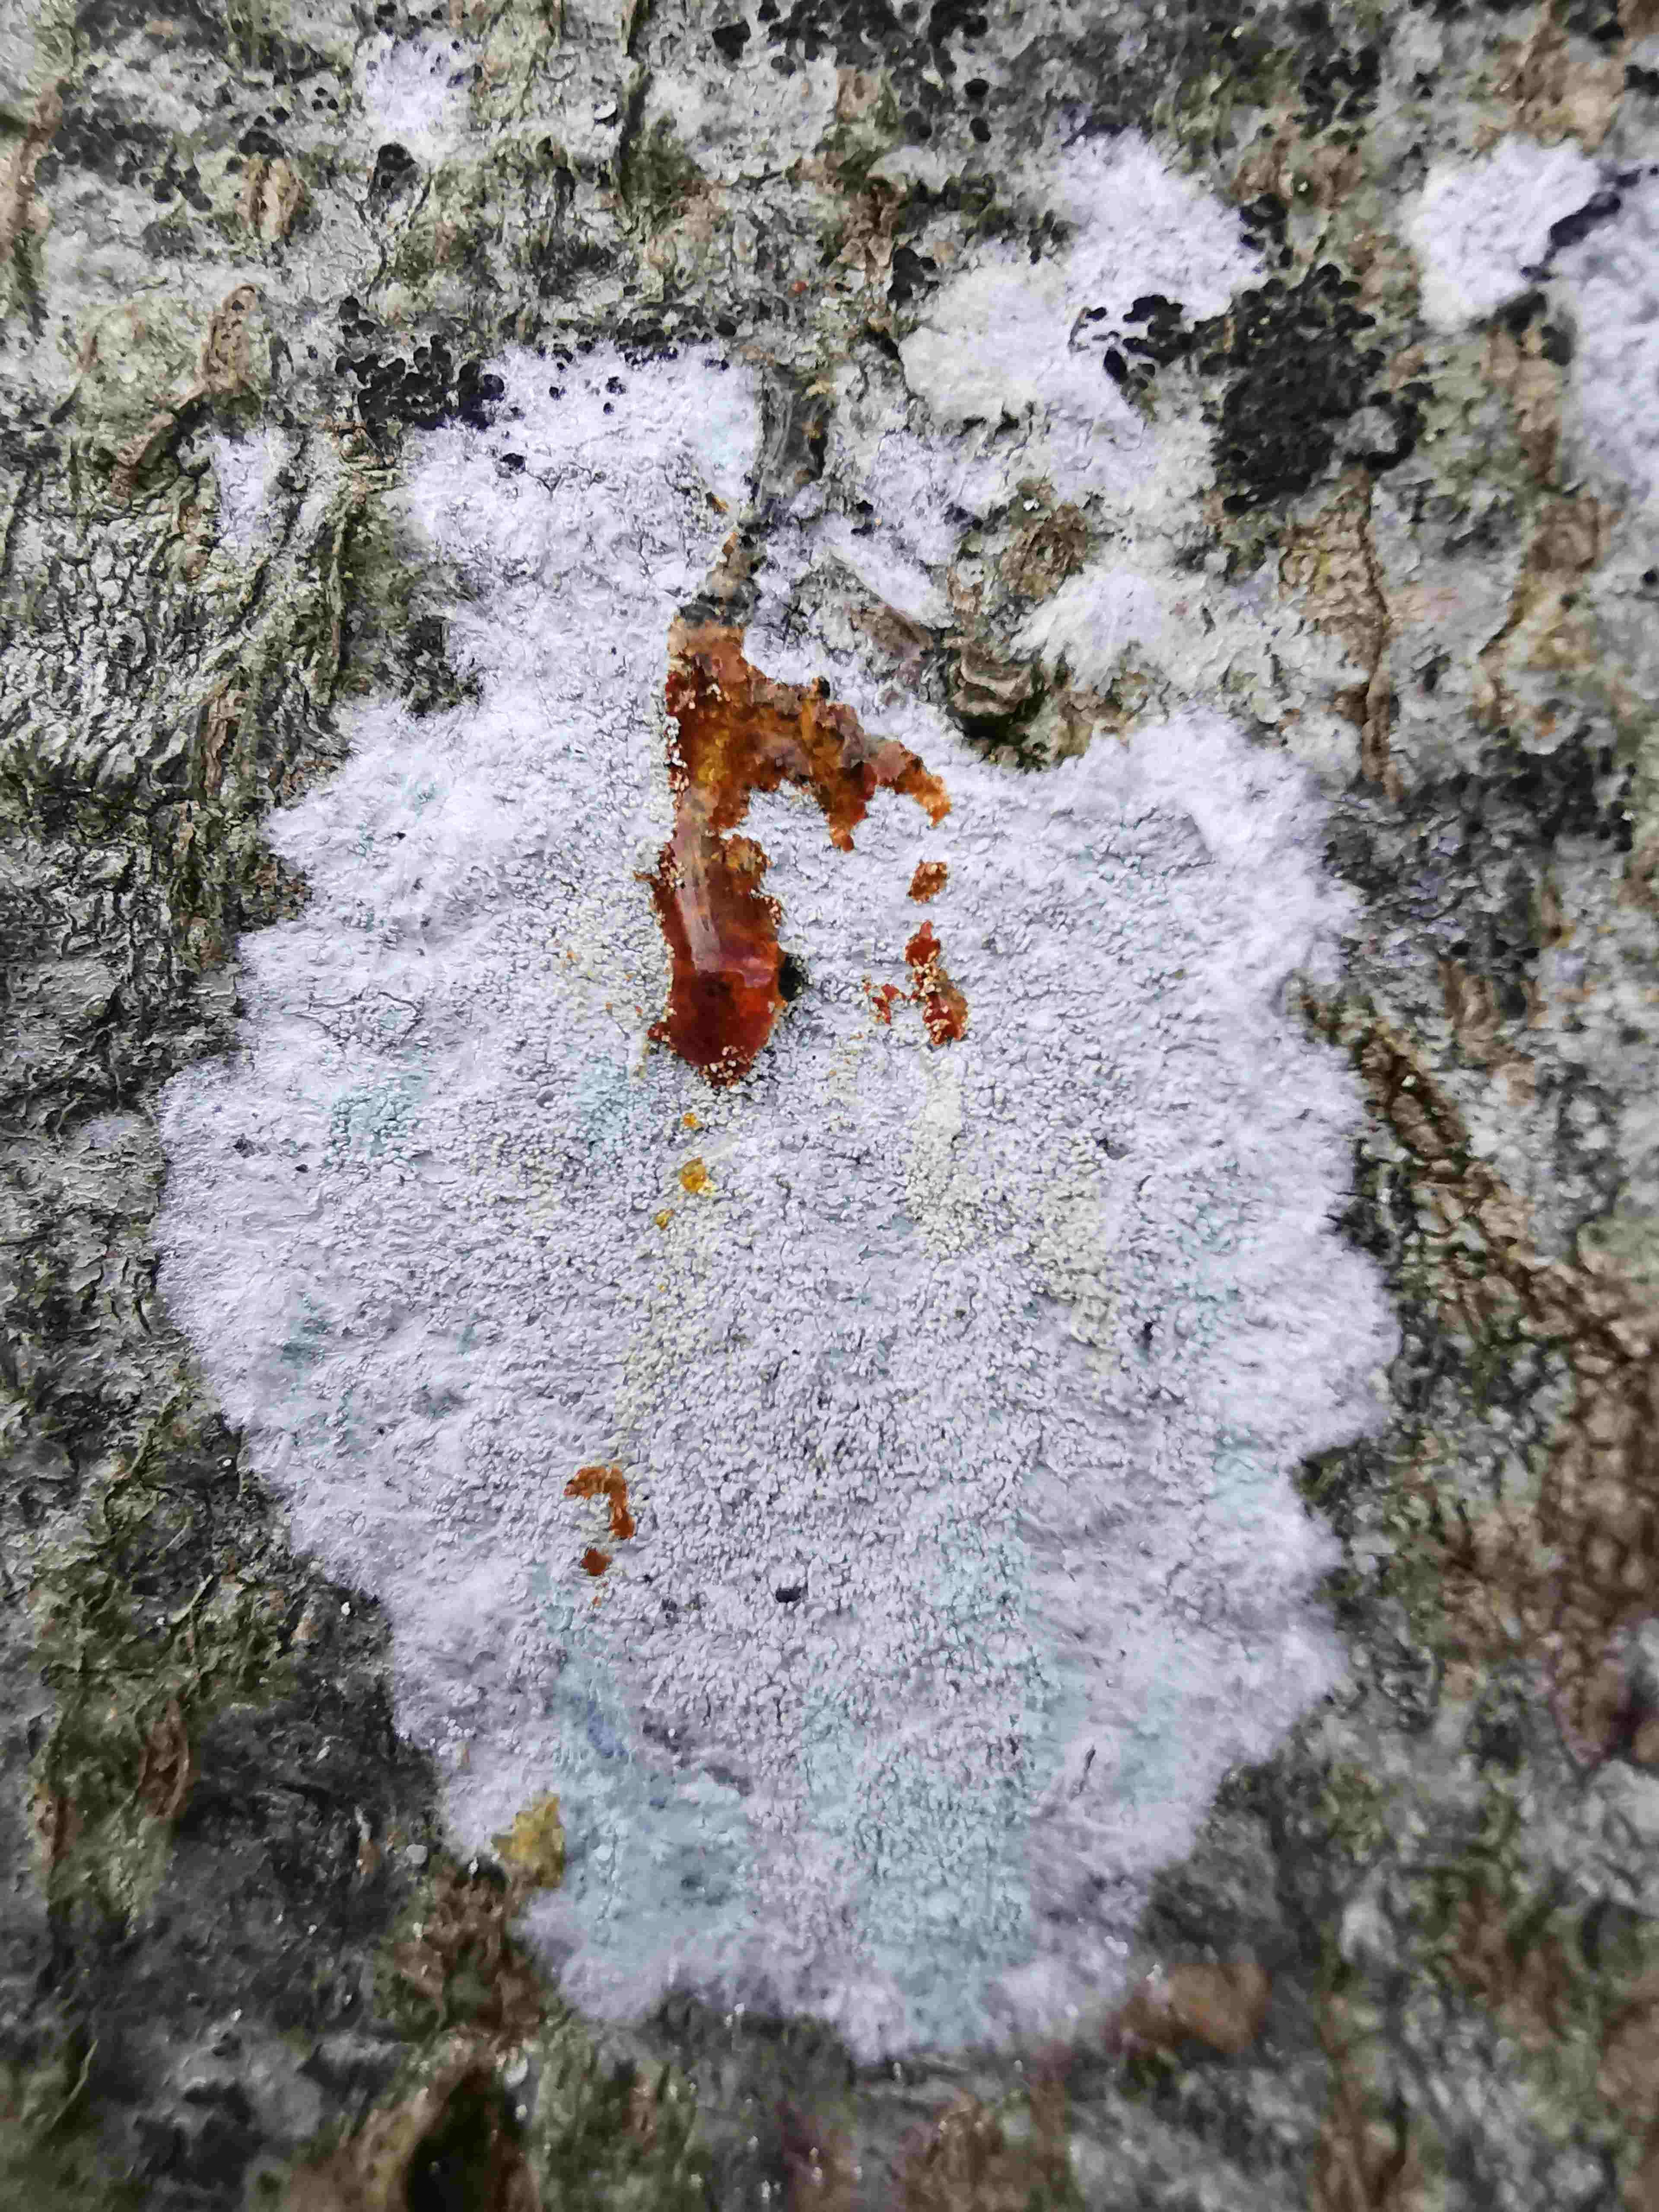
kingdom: Fungi
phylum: Ascomycota
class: Lecanoromycetes
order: Ostropales
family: Phlyctidaceae
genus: Phlyctis
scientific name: Phlyctis argena
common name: almindelig sølvlav
